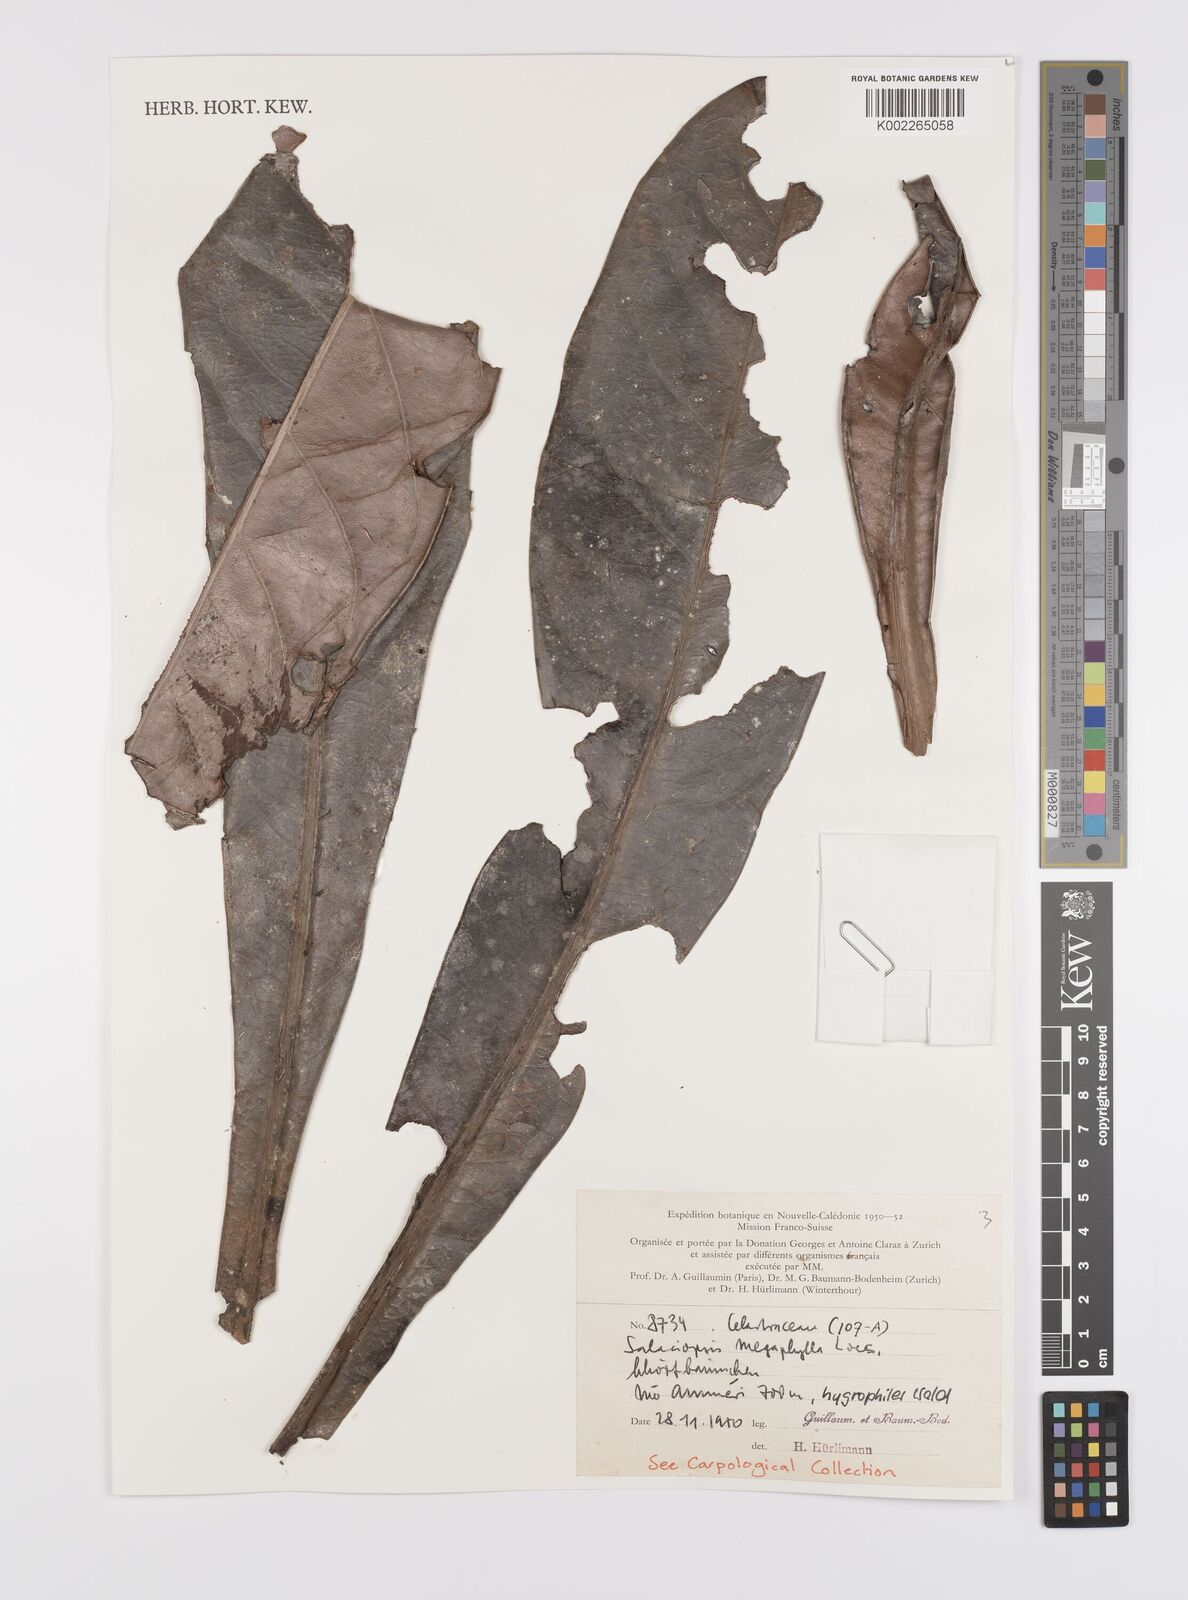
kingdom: Plantae
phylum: Tracheophyta
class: Magnoliopsida
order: Celastrales
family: Celastraceae
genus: Salaciopsis
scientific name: Salaciopsis megaphylla
